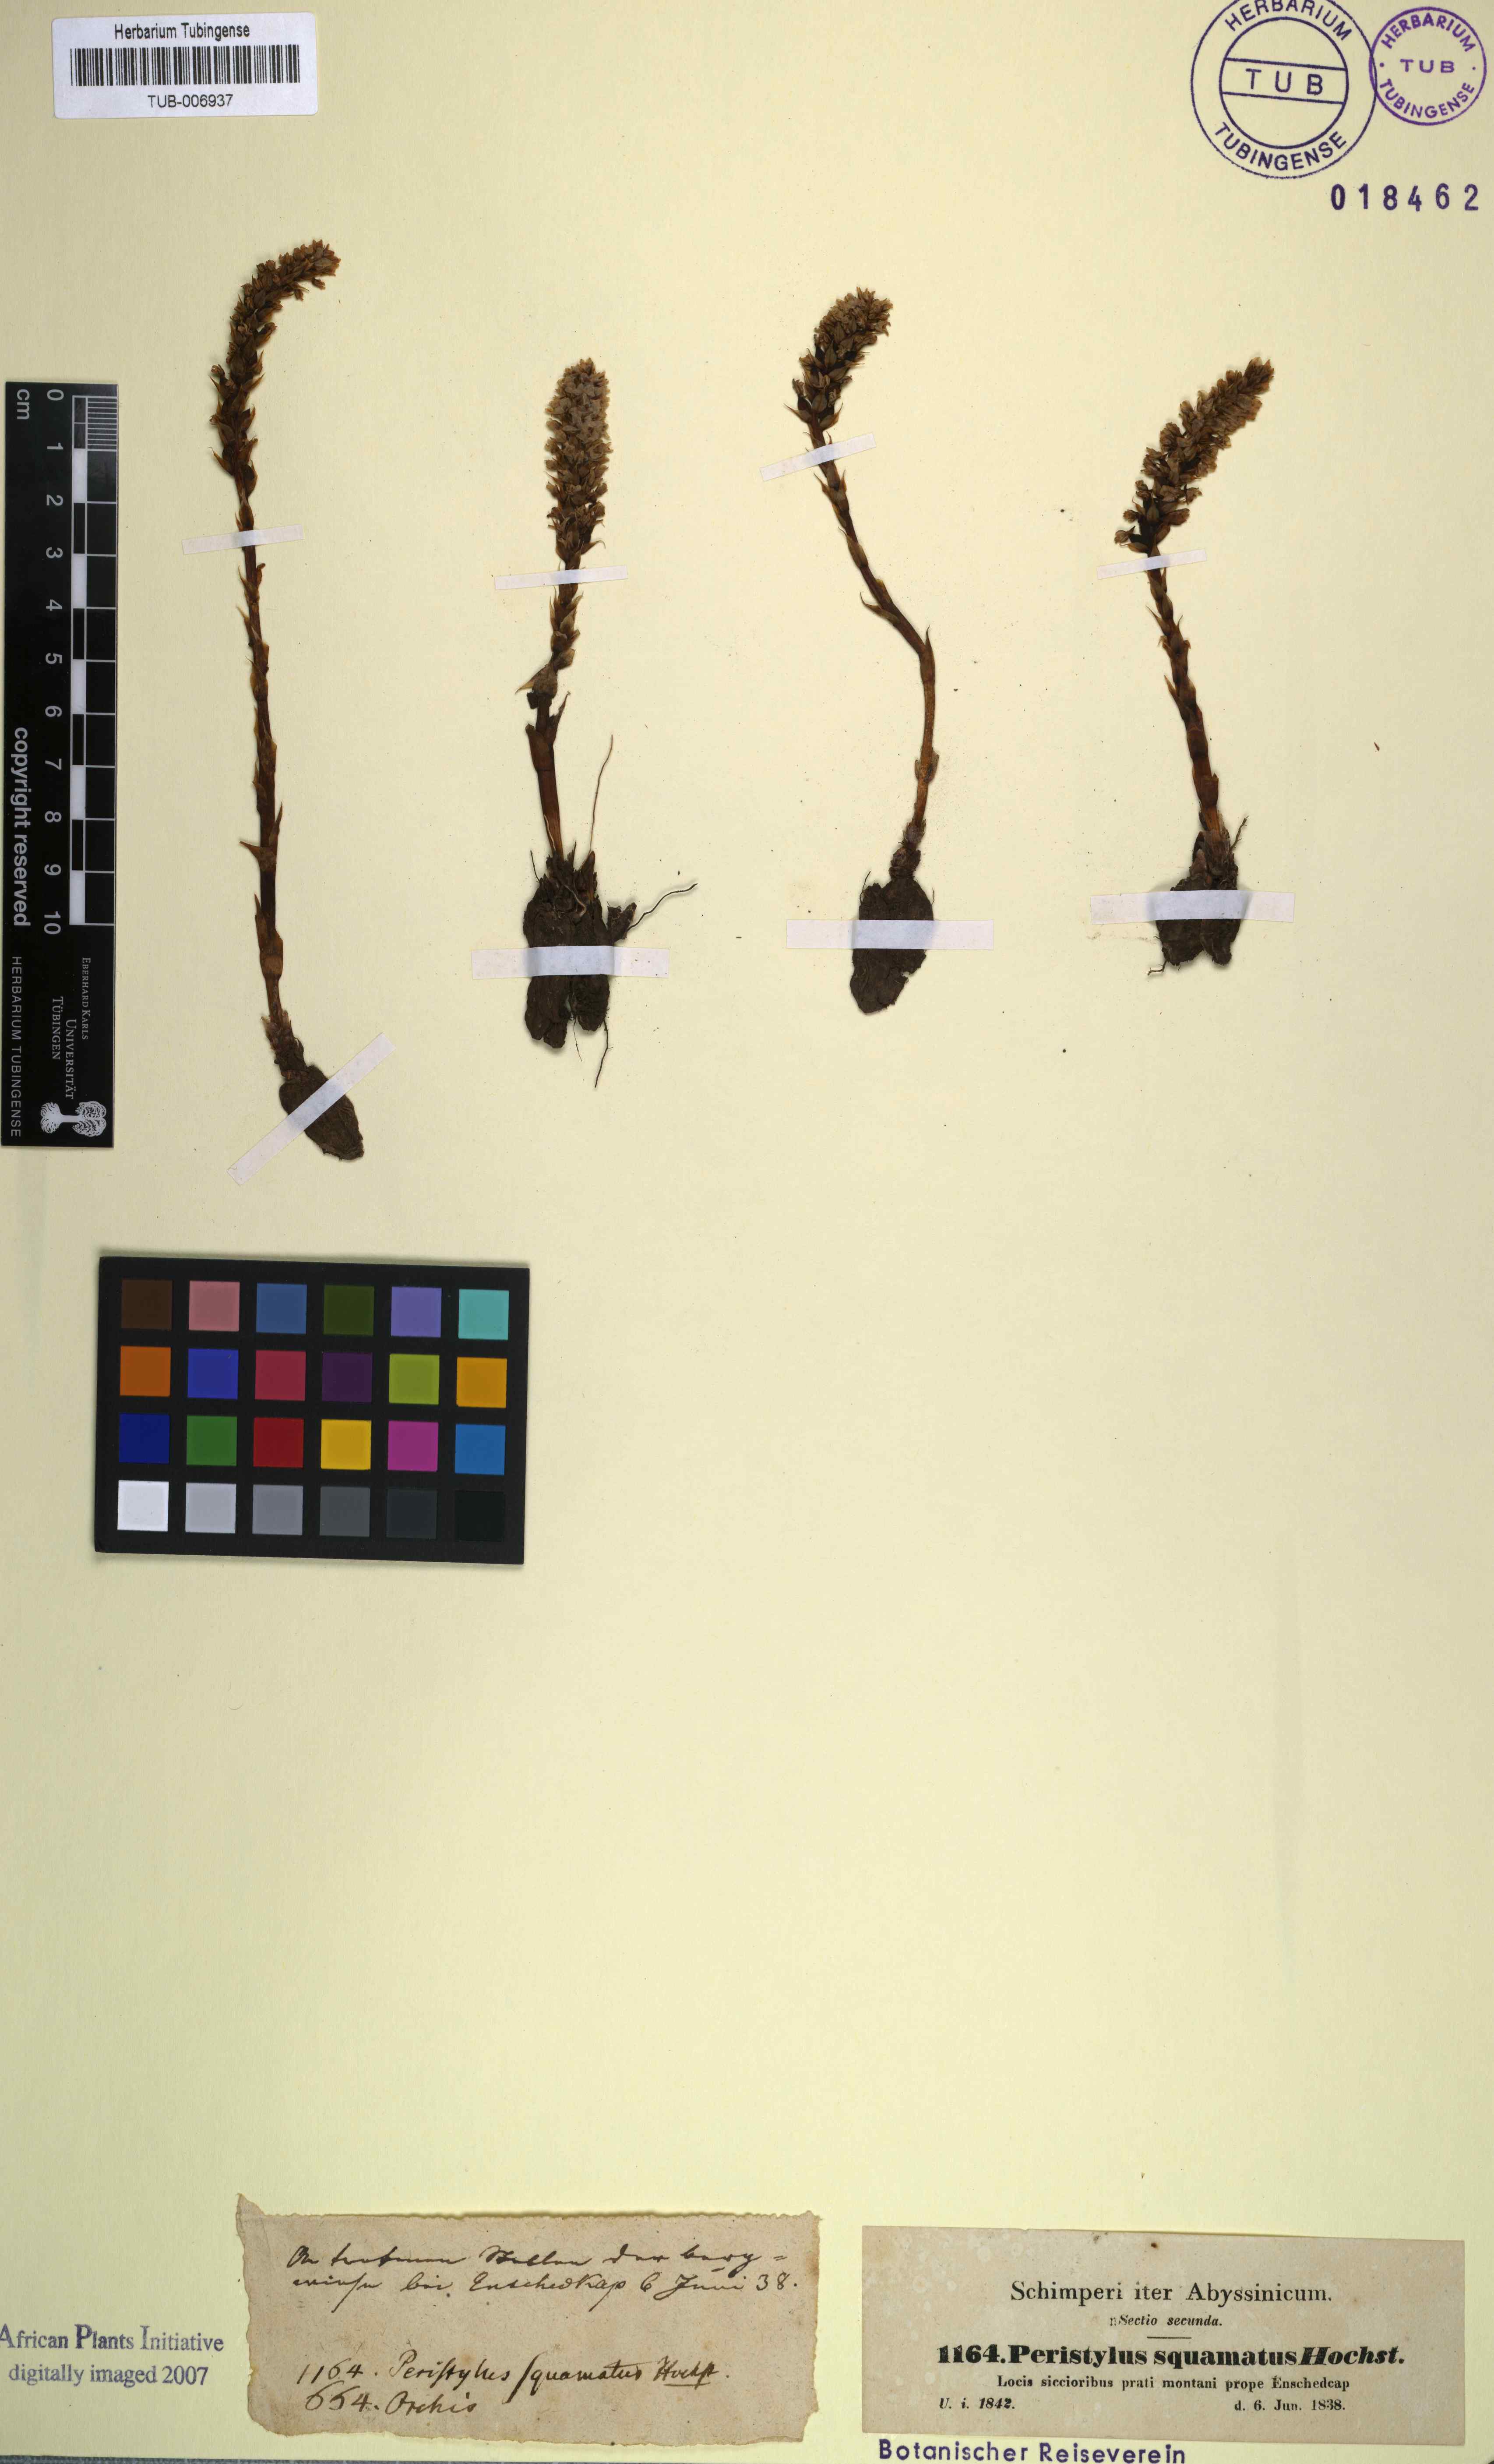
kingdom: Plantae
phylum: Tracheophyta
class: Liliopsida
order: Asparagales
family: Orchidaceae
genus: Deroemeria
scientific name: Deroemeria squamata
